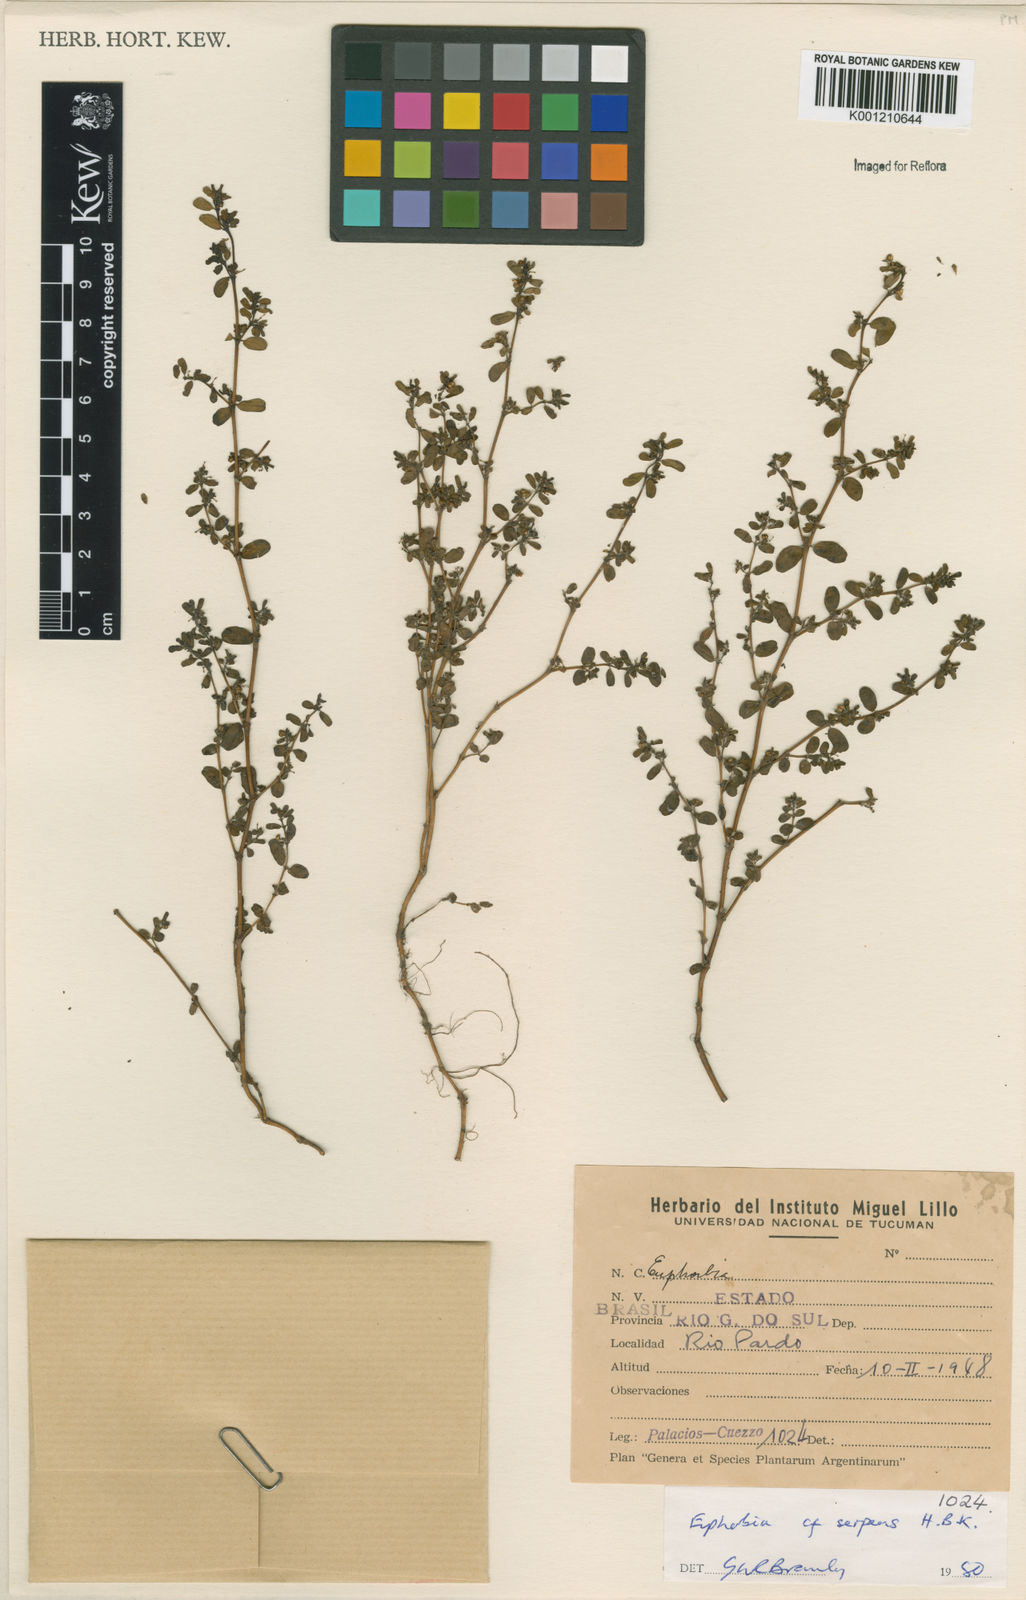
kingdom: Plantae
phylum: Tracheophyta
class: Magnoliopsida
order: Malpighiales
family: Euphorbiaceae
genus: Euphorbia
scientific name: Euphorbia serpens
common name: Matted sandmat
